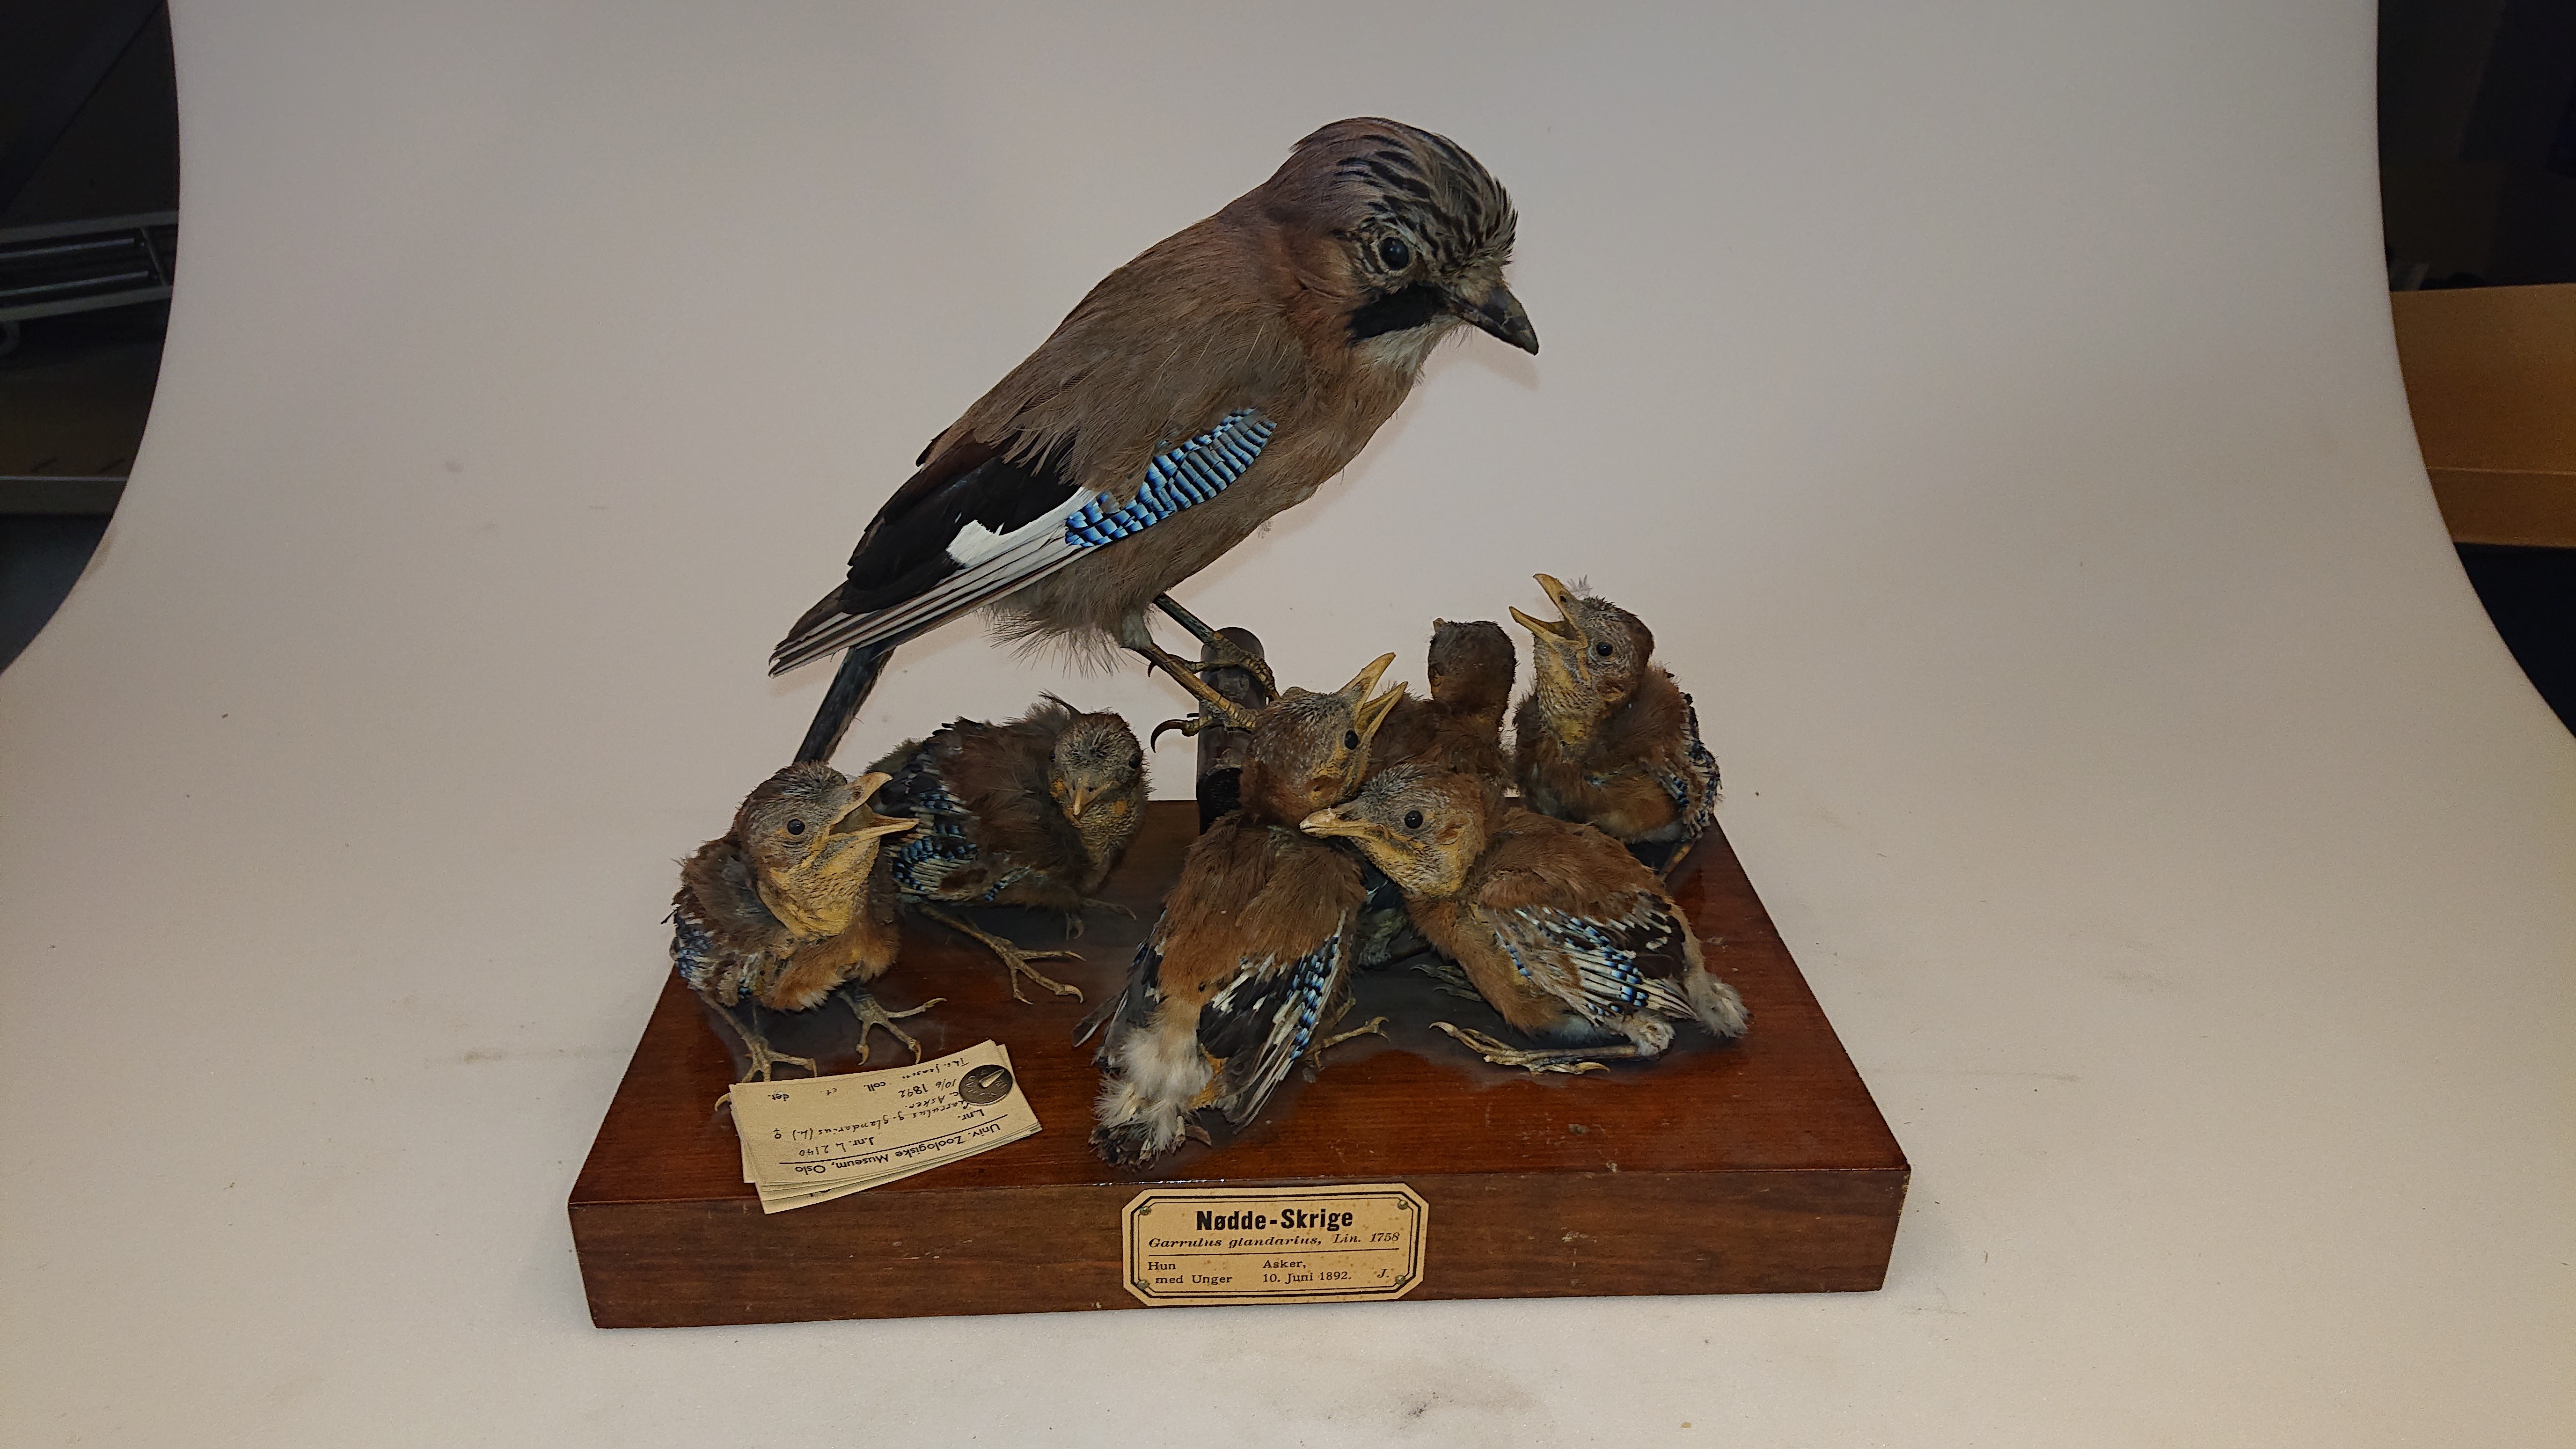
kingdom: Animalia
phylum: Chordata
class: Aves
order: Passeriformes
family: Corvidae
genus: Garrulus
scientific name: Garrulus glandarius
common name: Eurasian jay
